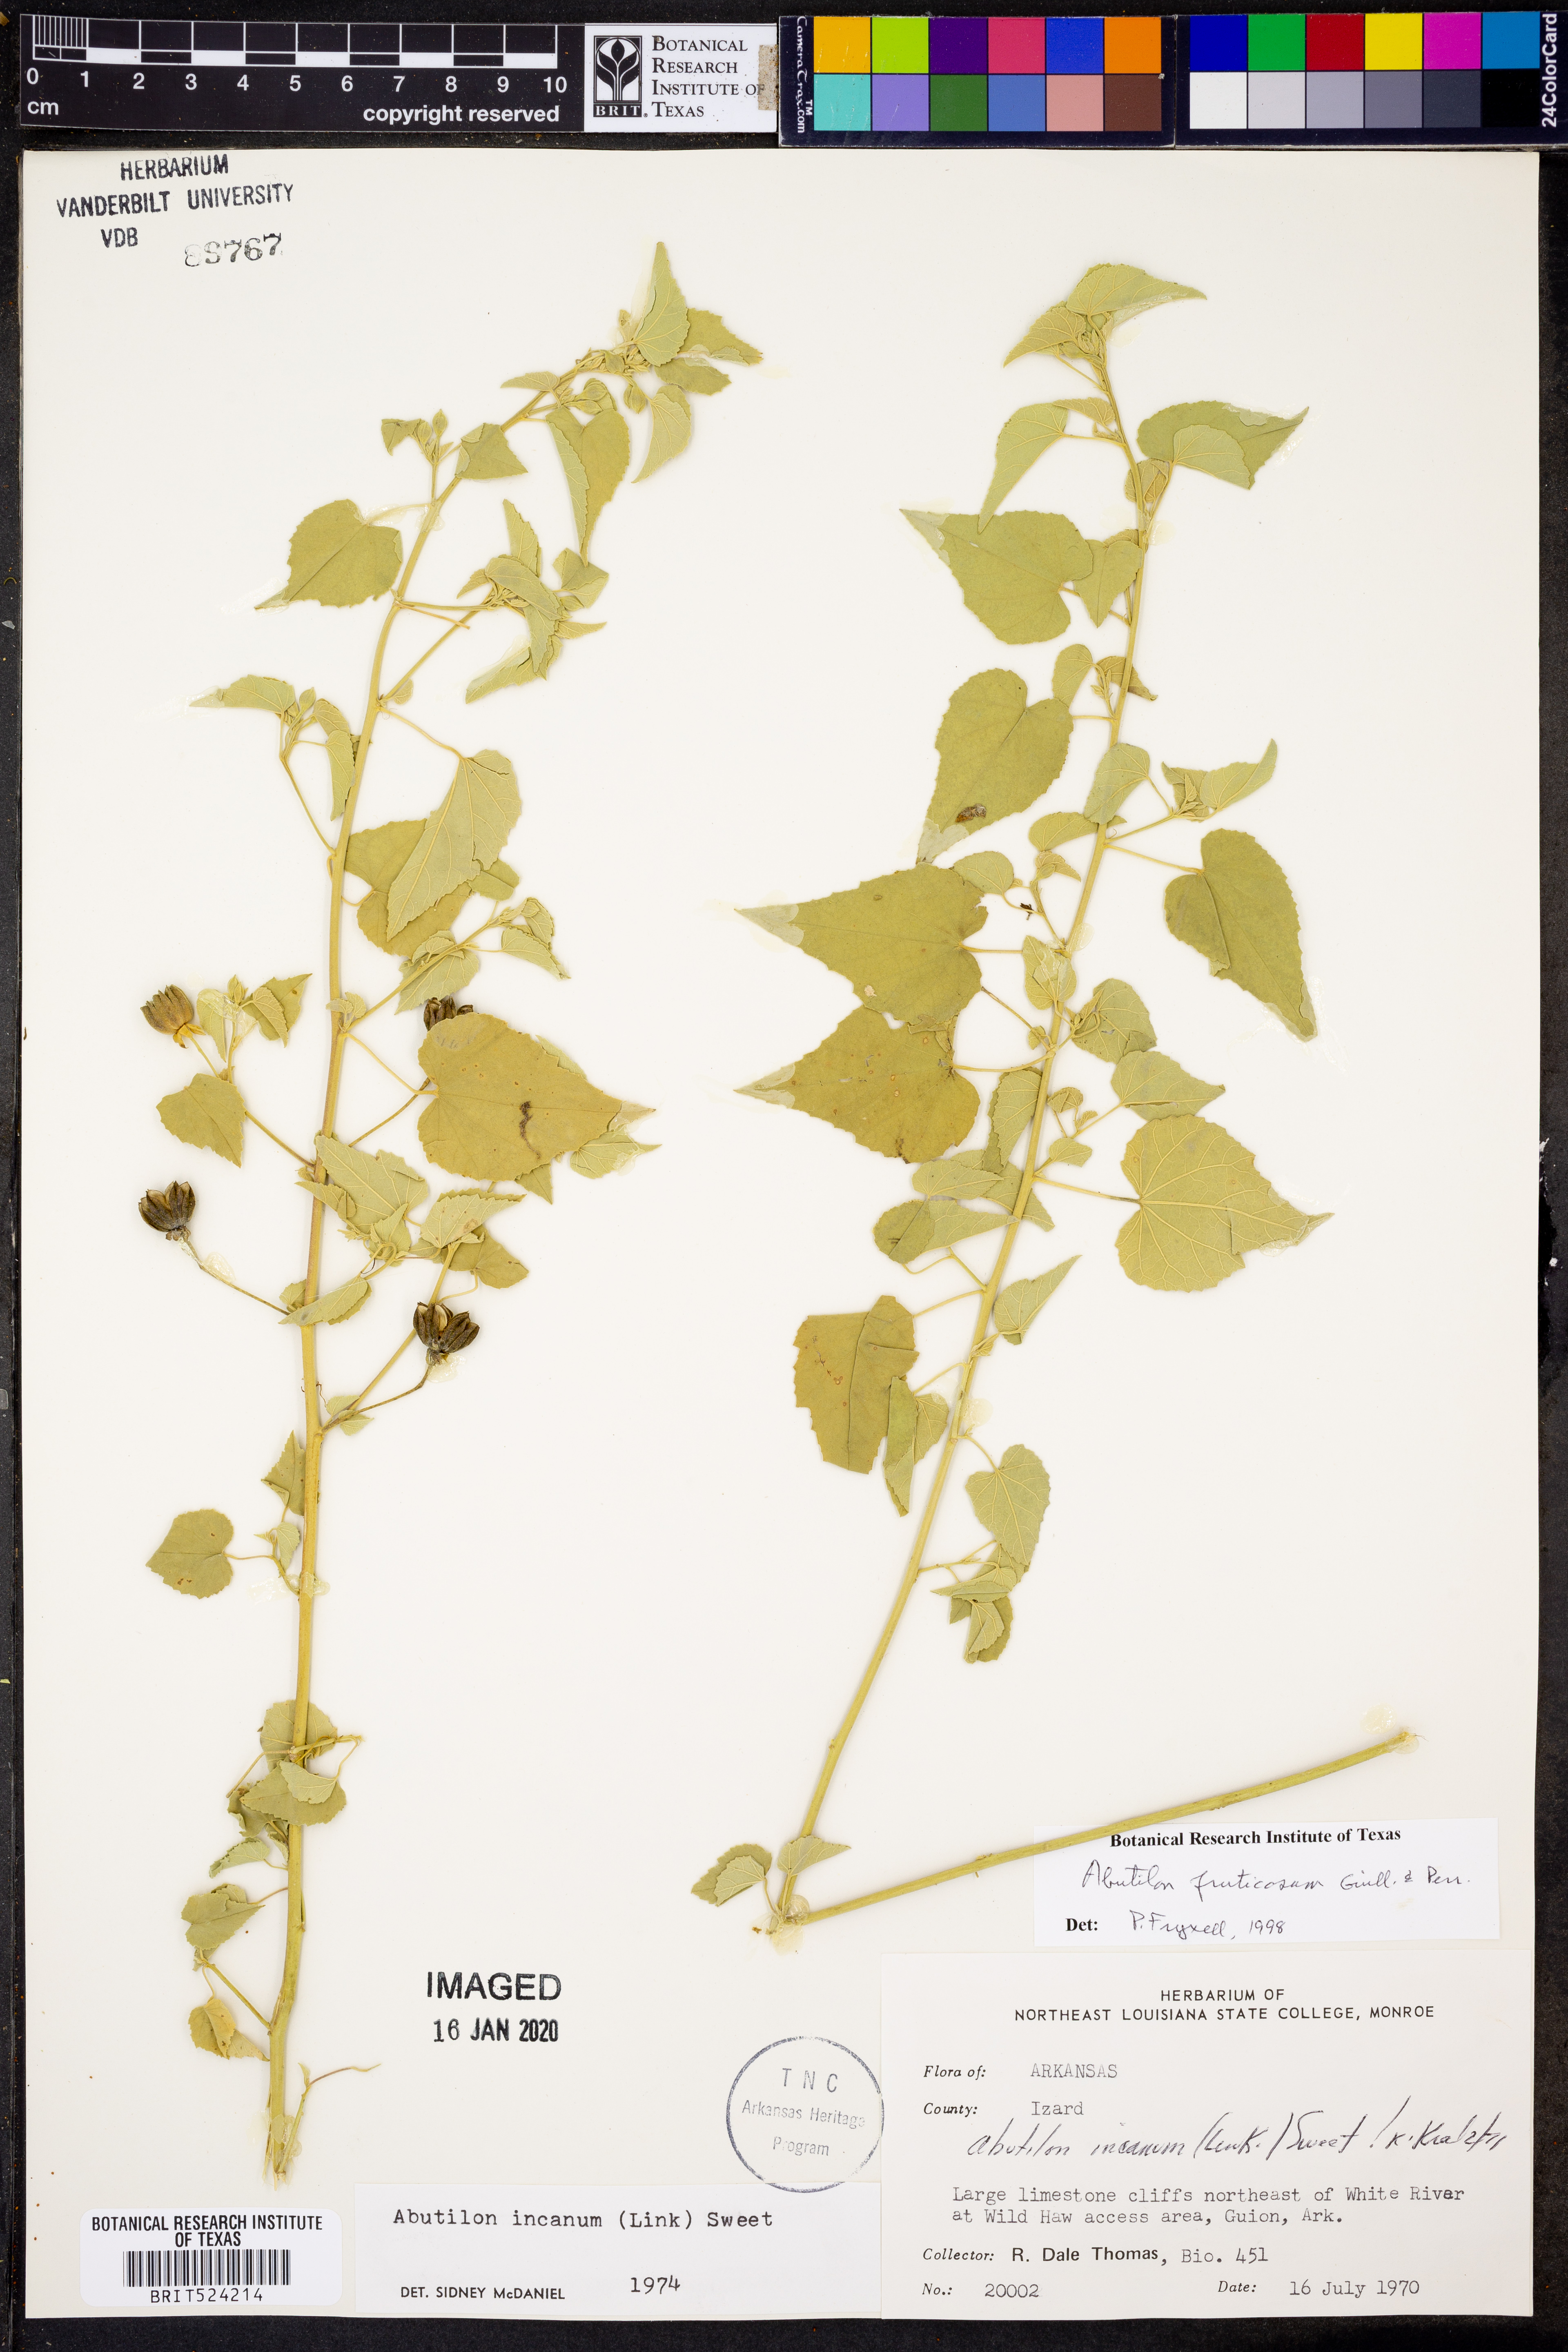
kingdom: Plantae
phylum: Tracheophyta
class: Magnoliopsida
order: Malvales
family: Malvaceae
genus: Abutilon
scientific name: Abutilon incanum
